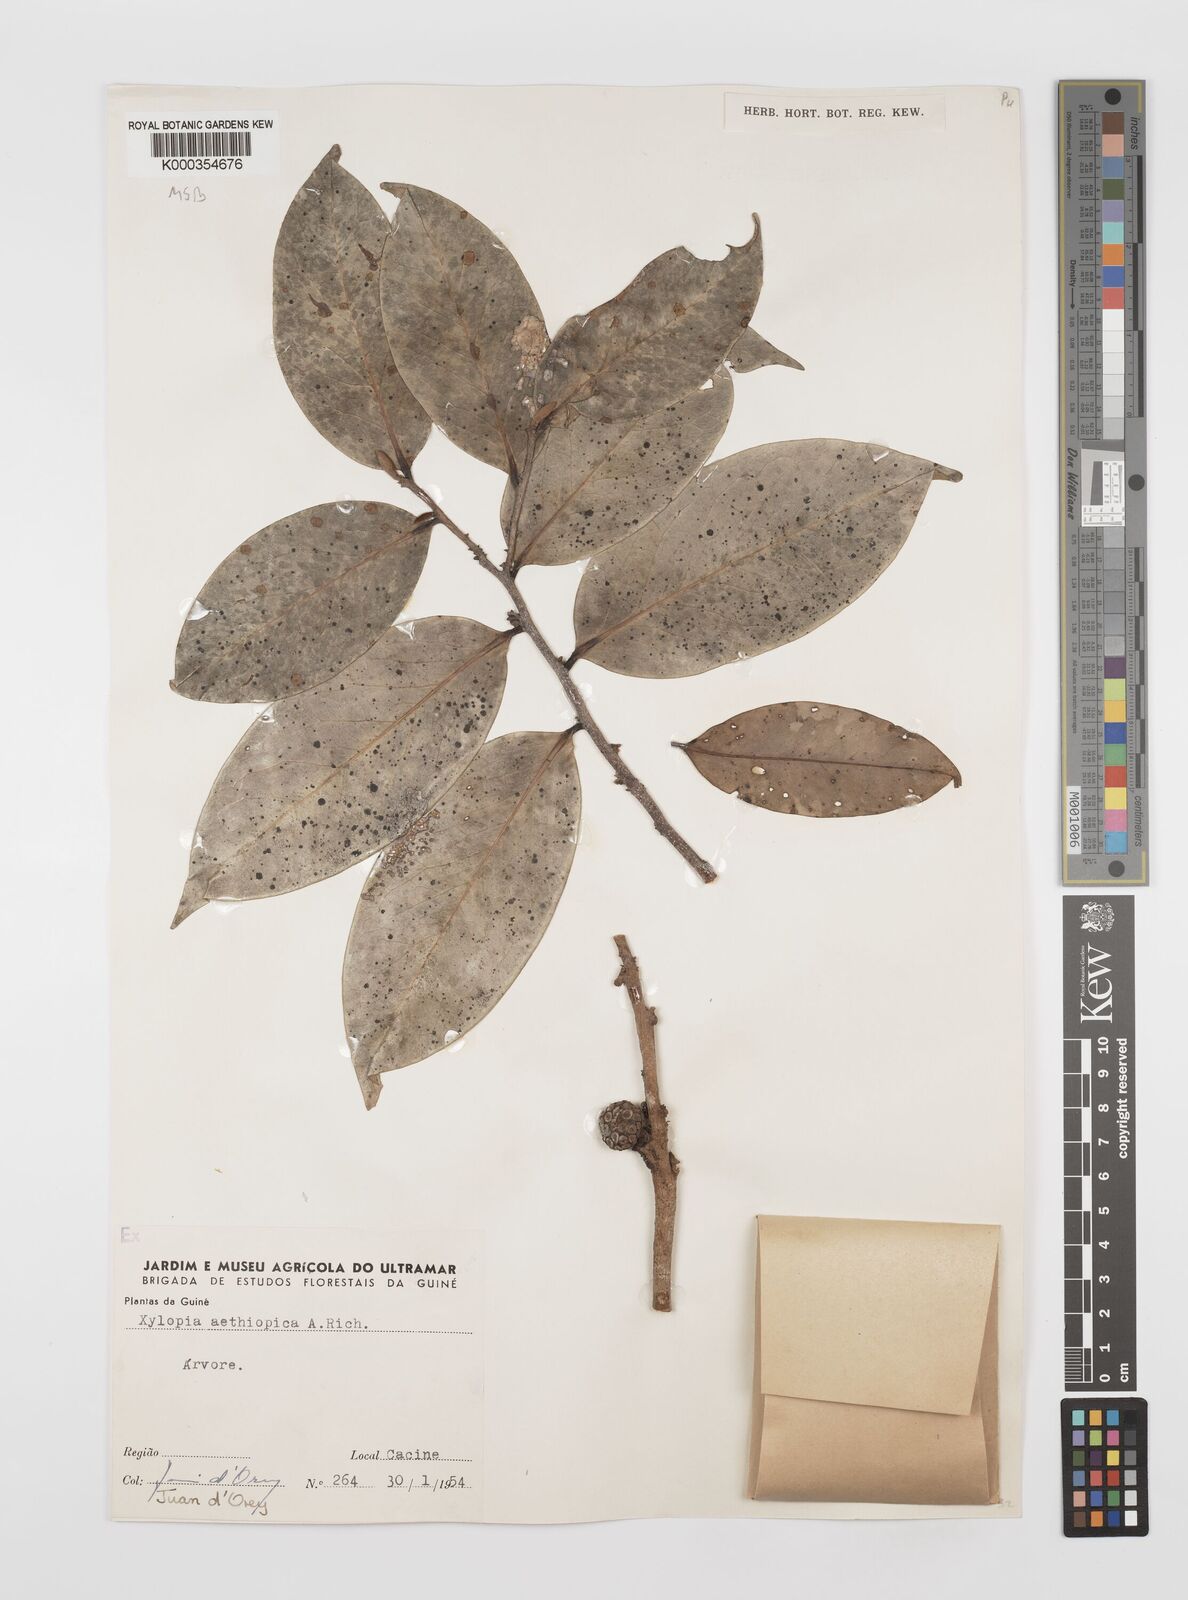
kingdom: Plantae
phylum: Tracheophyta
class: Magnoliopsida
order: Magnoliales
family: Annonaceae
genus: Xylopia
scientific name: Xylopia aethiopica
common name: Ethiopian-pepper
